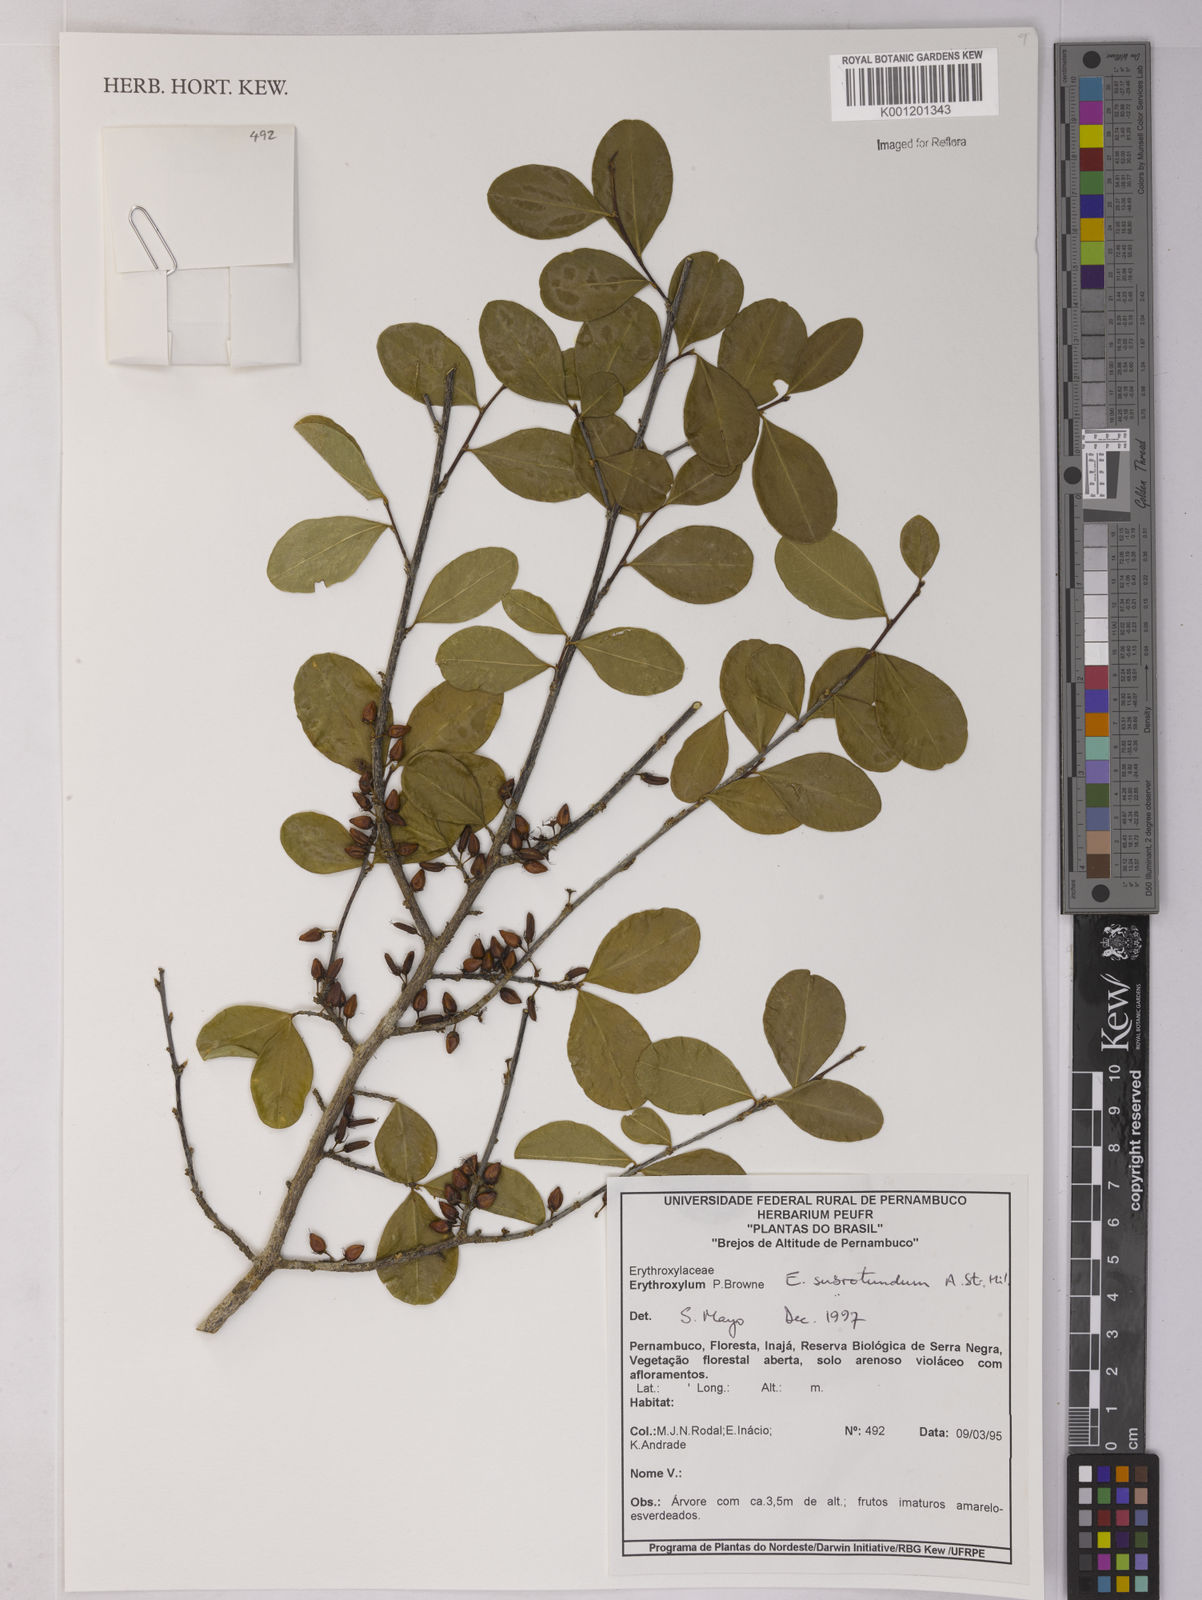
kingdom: Plantae
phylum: Tracheophyta
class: Magnoliopsida
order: Malpighiales
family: Erythroxylaceae
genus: Erythroxylum
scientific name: Erythroxylum subrotundum
